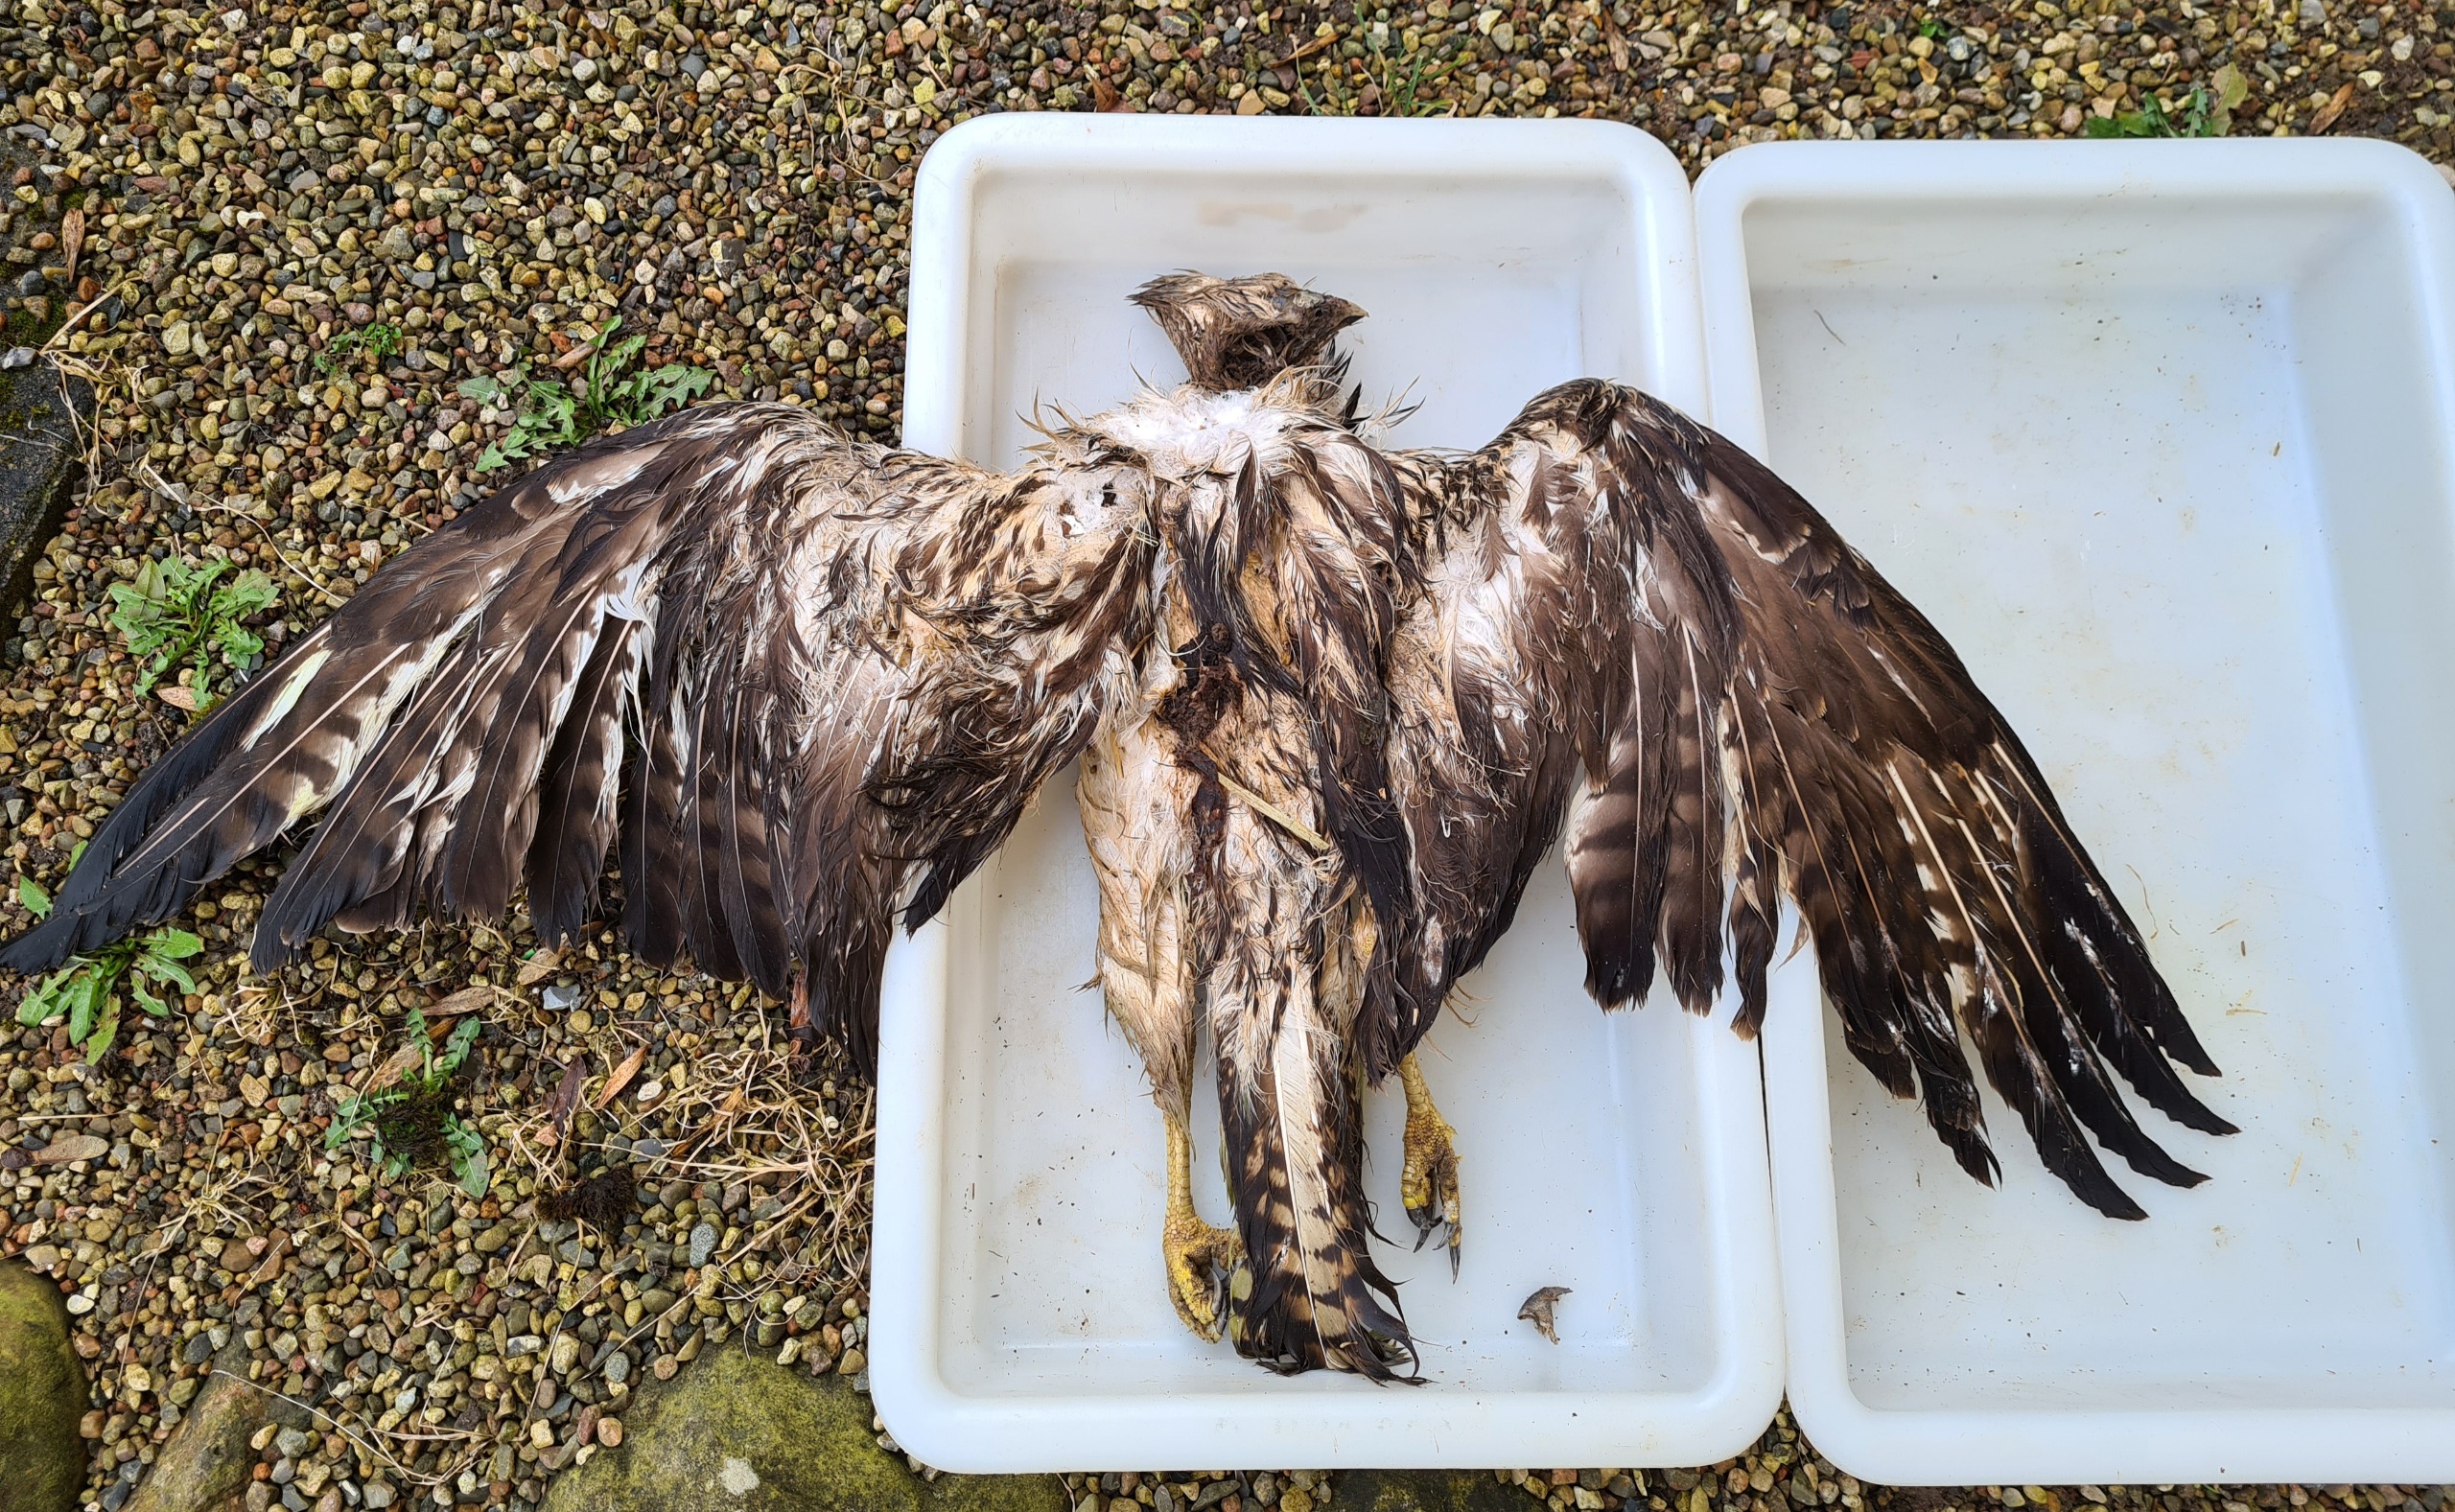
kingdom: Animalia
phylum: Chordata
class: Aves
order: Accipitriformes
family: Accipitridae
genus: Buteo
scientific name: Buteo buteo
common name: Musvåge
